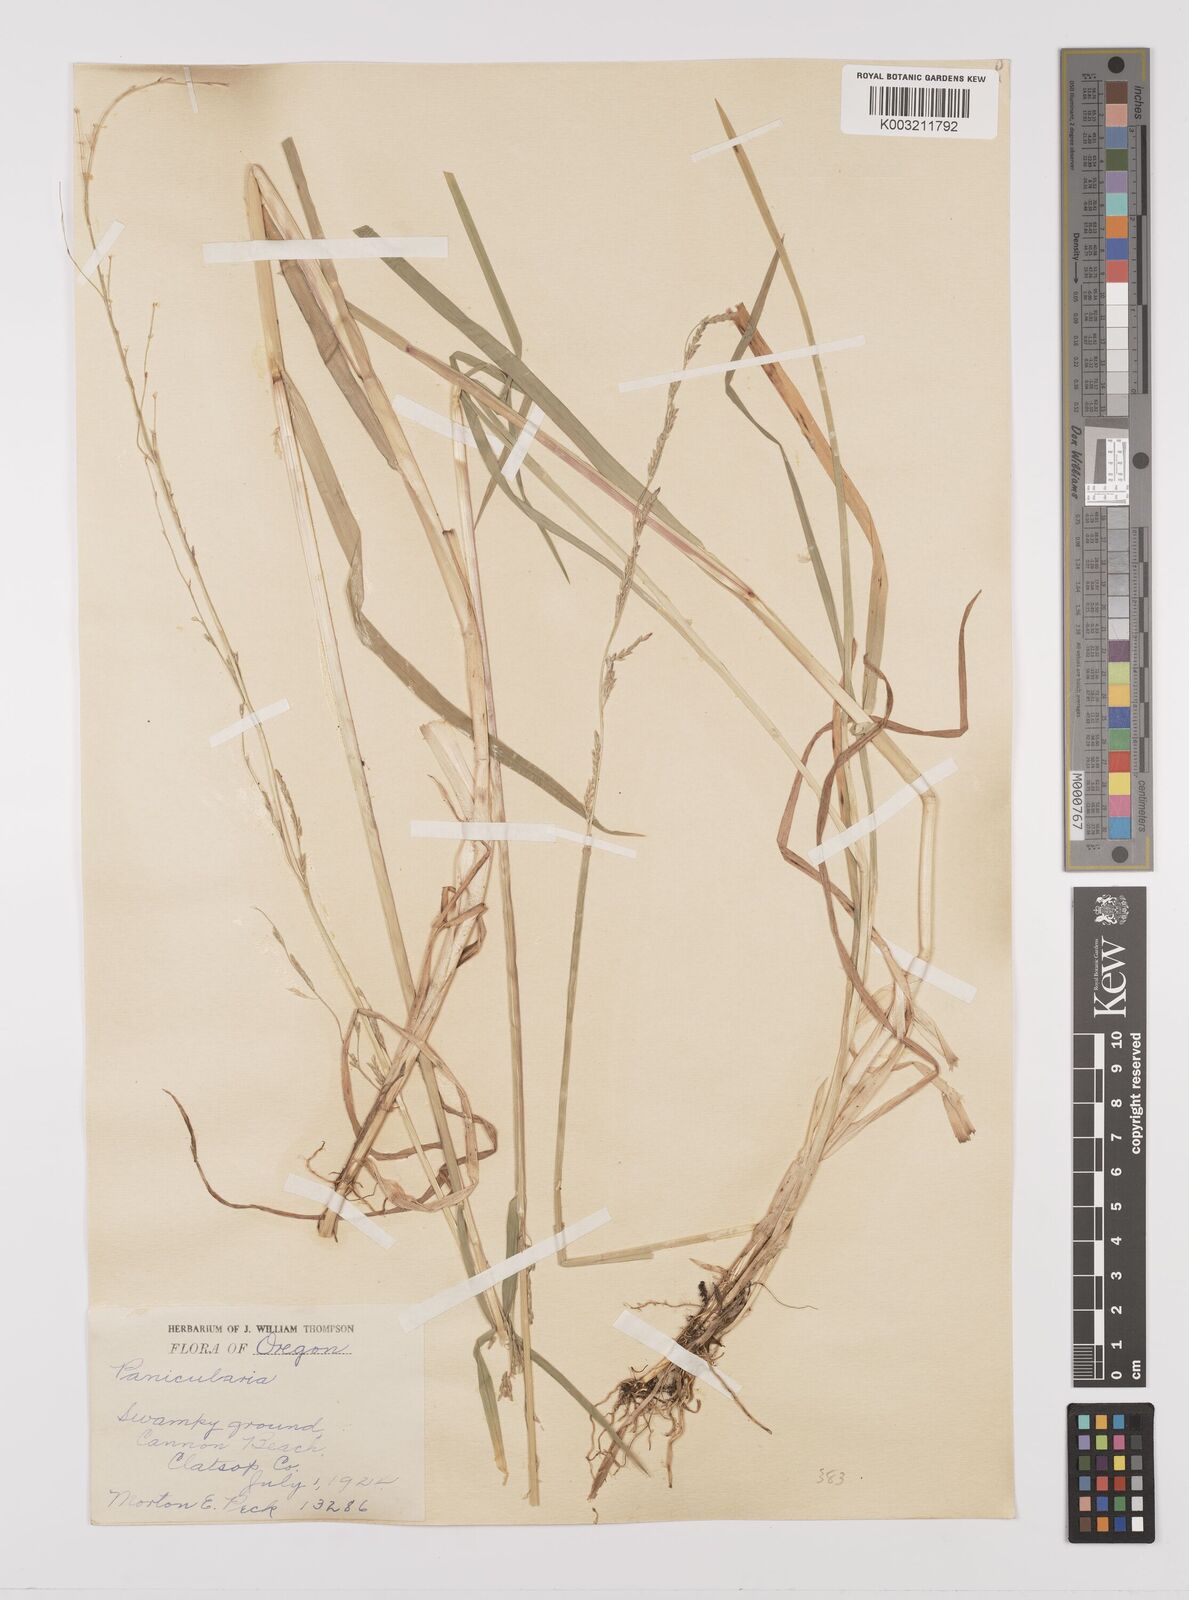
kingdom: Plantae
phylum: Tracheophyta
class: Liliopsida
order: Poales
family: Poaceae
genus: Glyceria
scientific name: Glyceria leptostachya
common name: Davy's mannagrass
